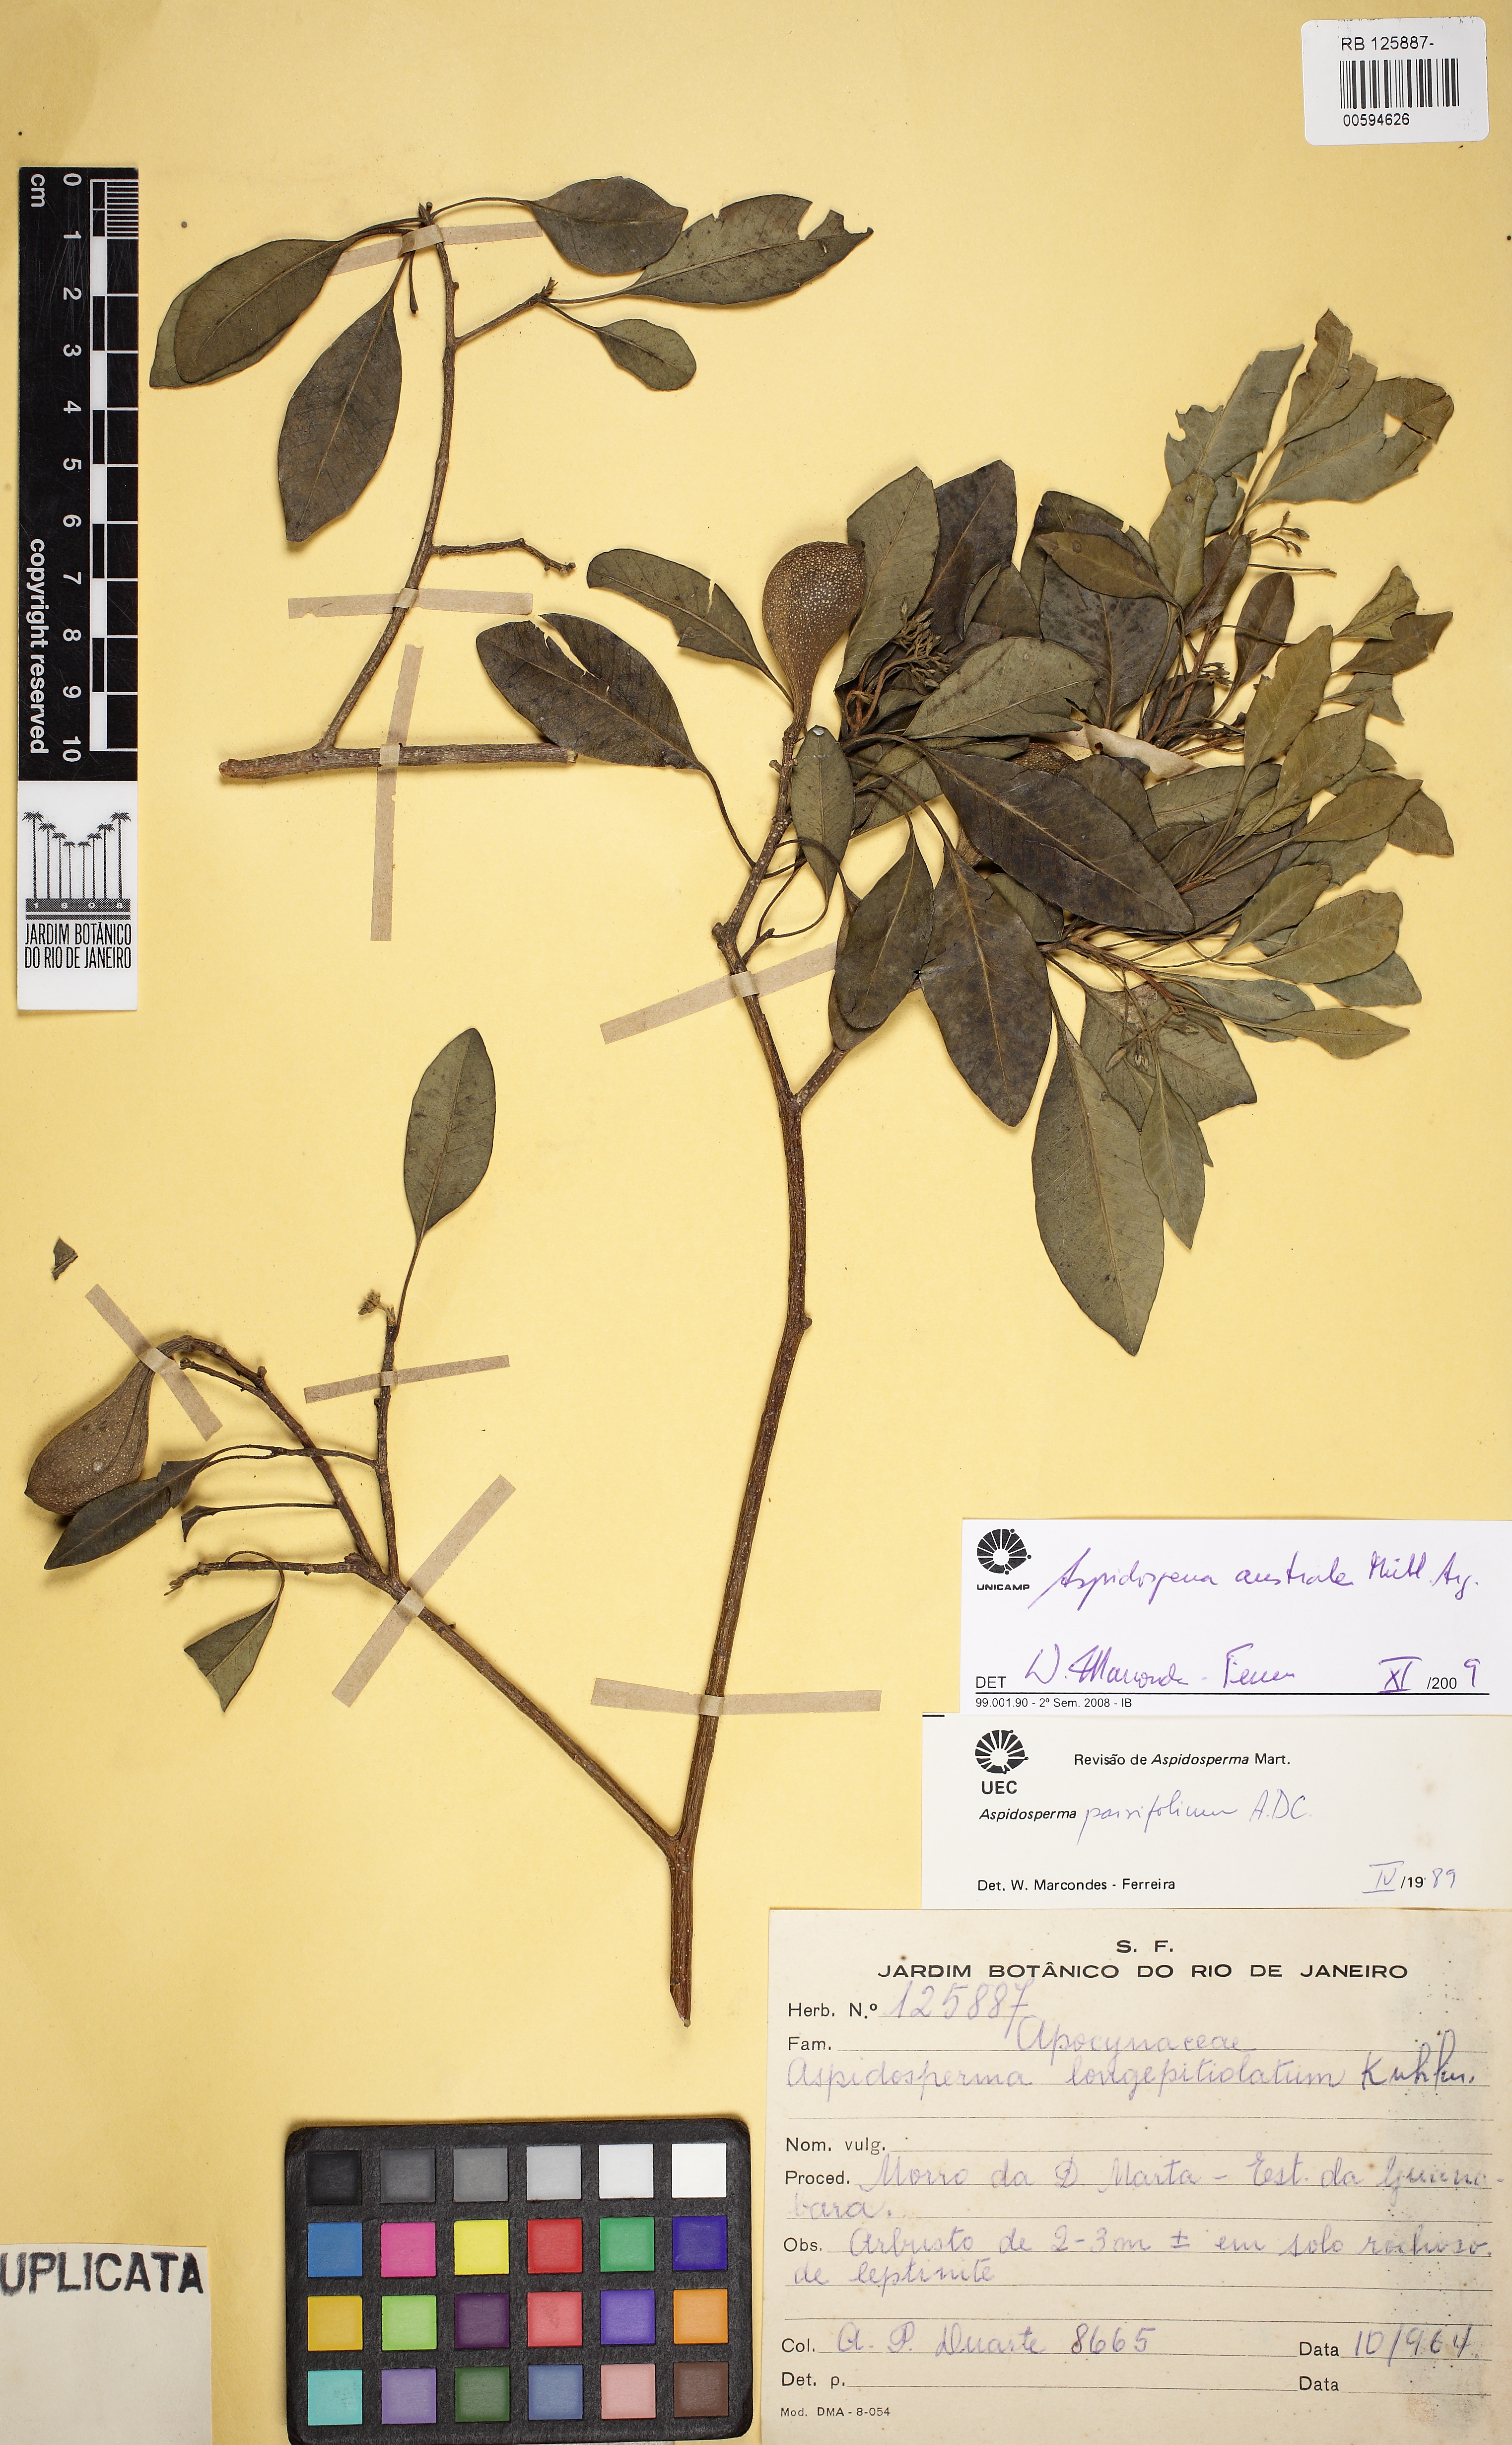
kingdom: Plantae
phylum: Tracheophyta
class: Magnoliopsida
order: Gentianales
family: Apocynaceae
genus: Aspidosperma
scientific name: Aspidosperma australe
